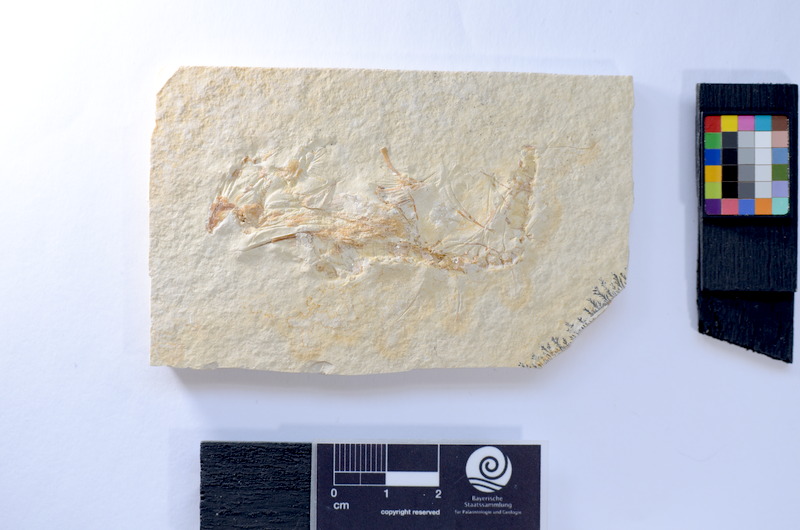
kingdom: Animalia
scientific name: Animalia
